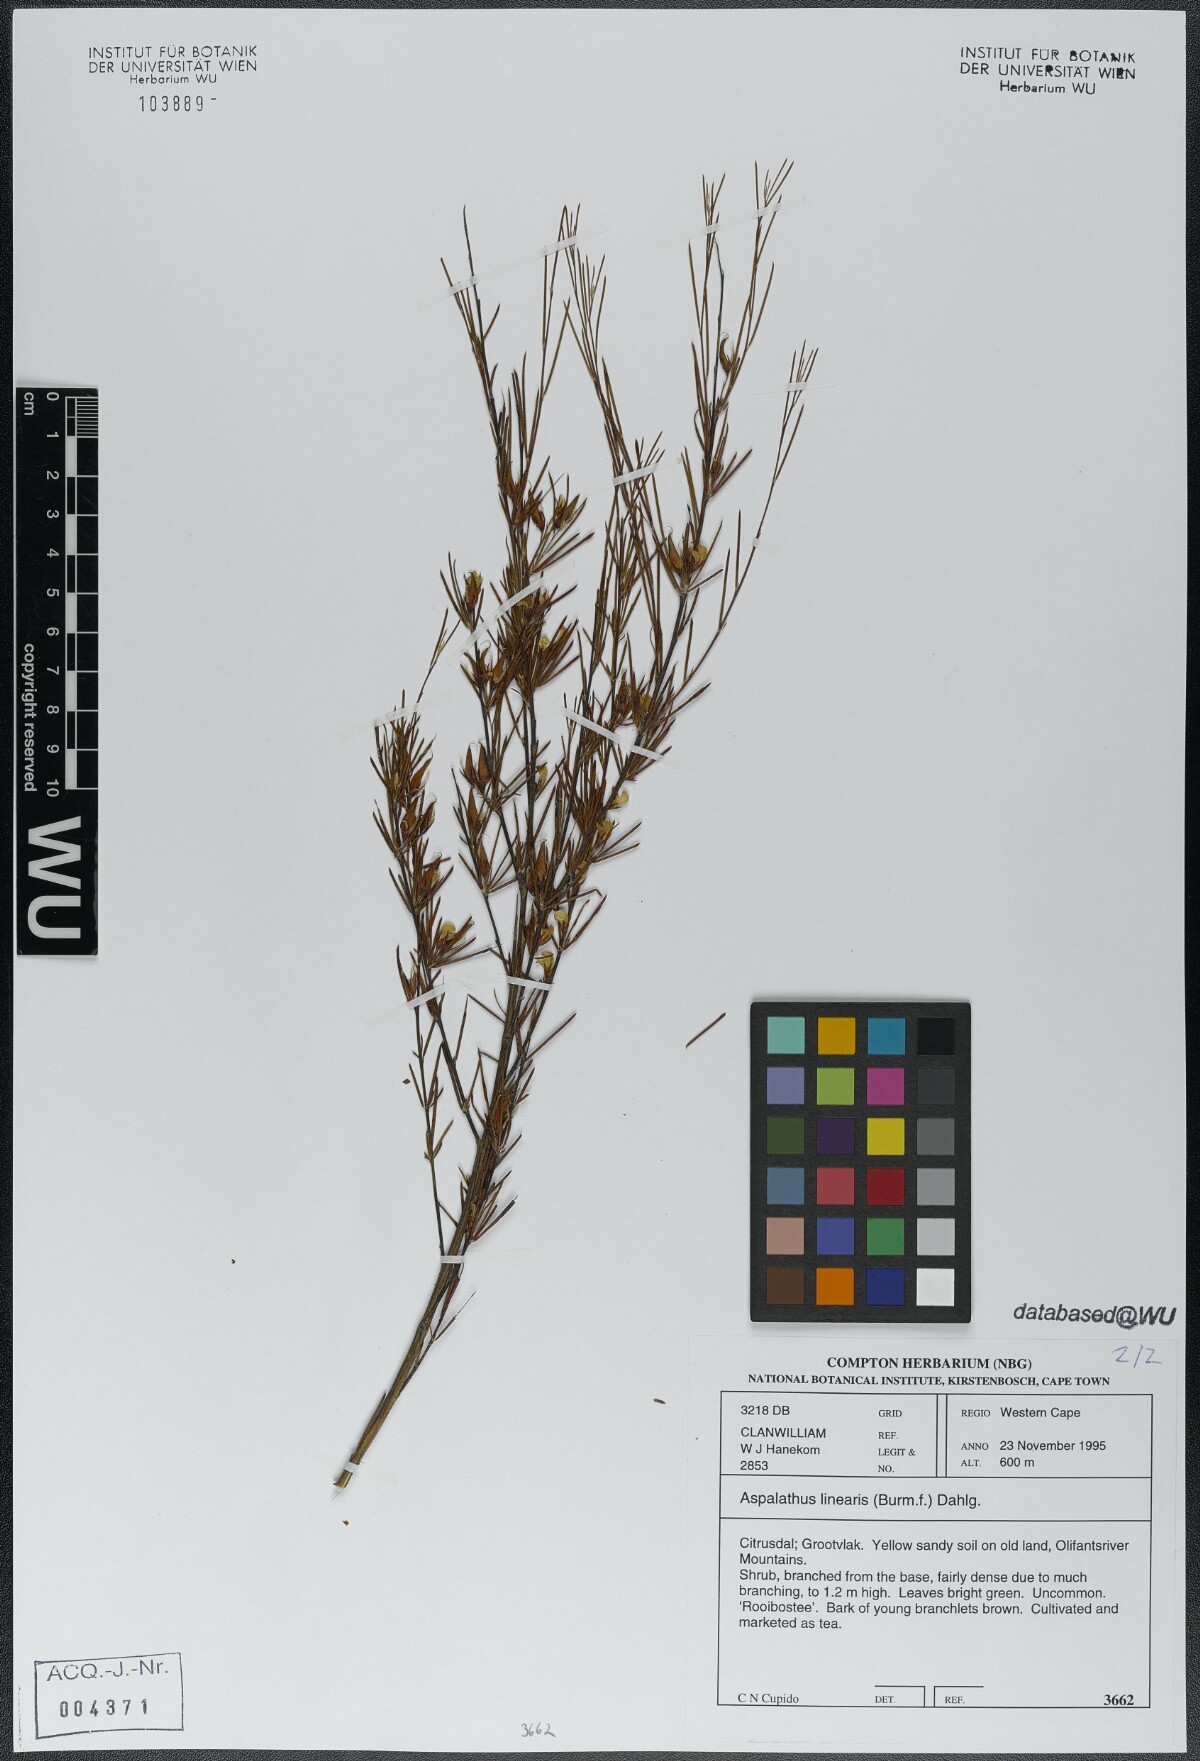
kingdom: Plantae
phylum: Tracheophyta
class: Magnoliopsida
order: Fabales
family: Fabaceae
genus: Aspalathus
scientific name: Aspalathus linearis
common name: Rooibos-tea
